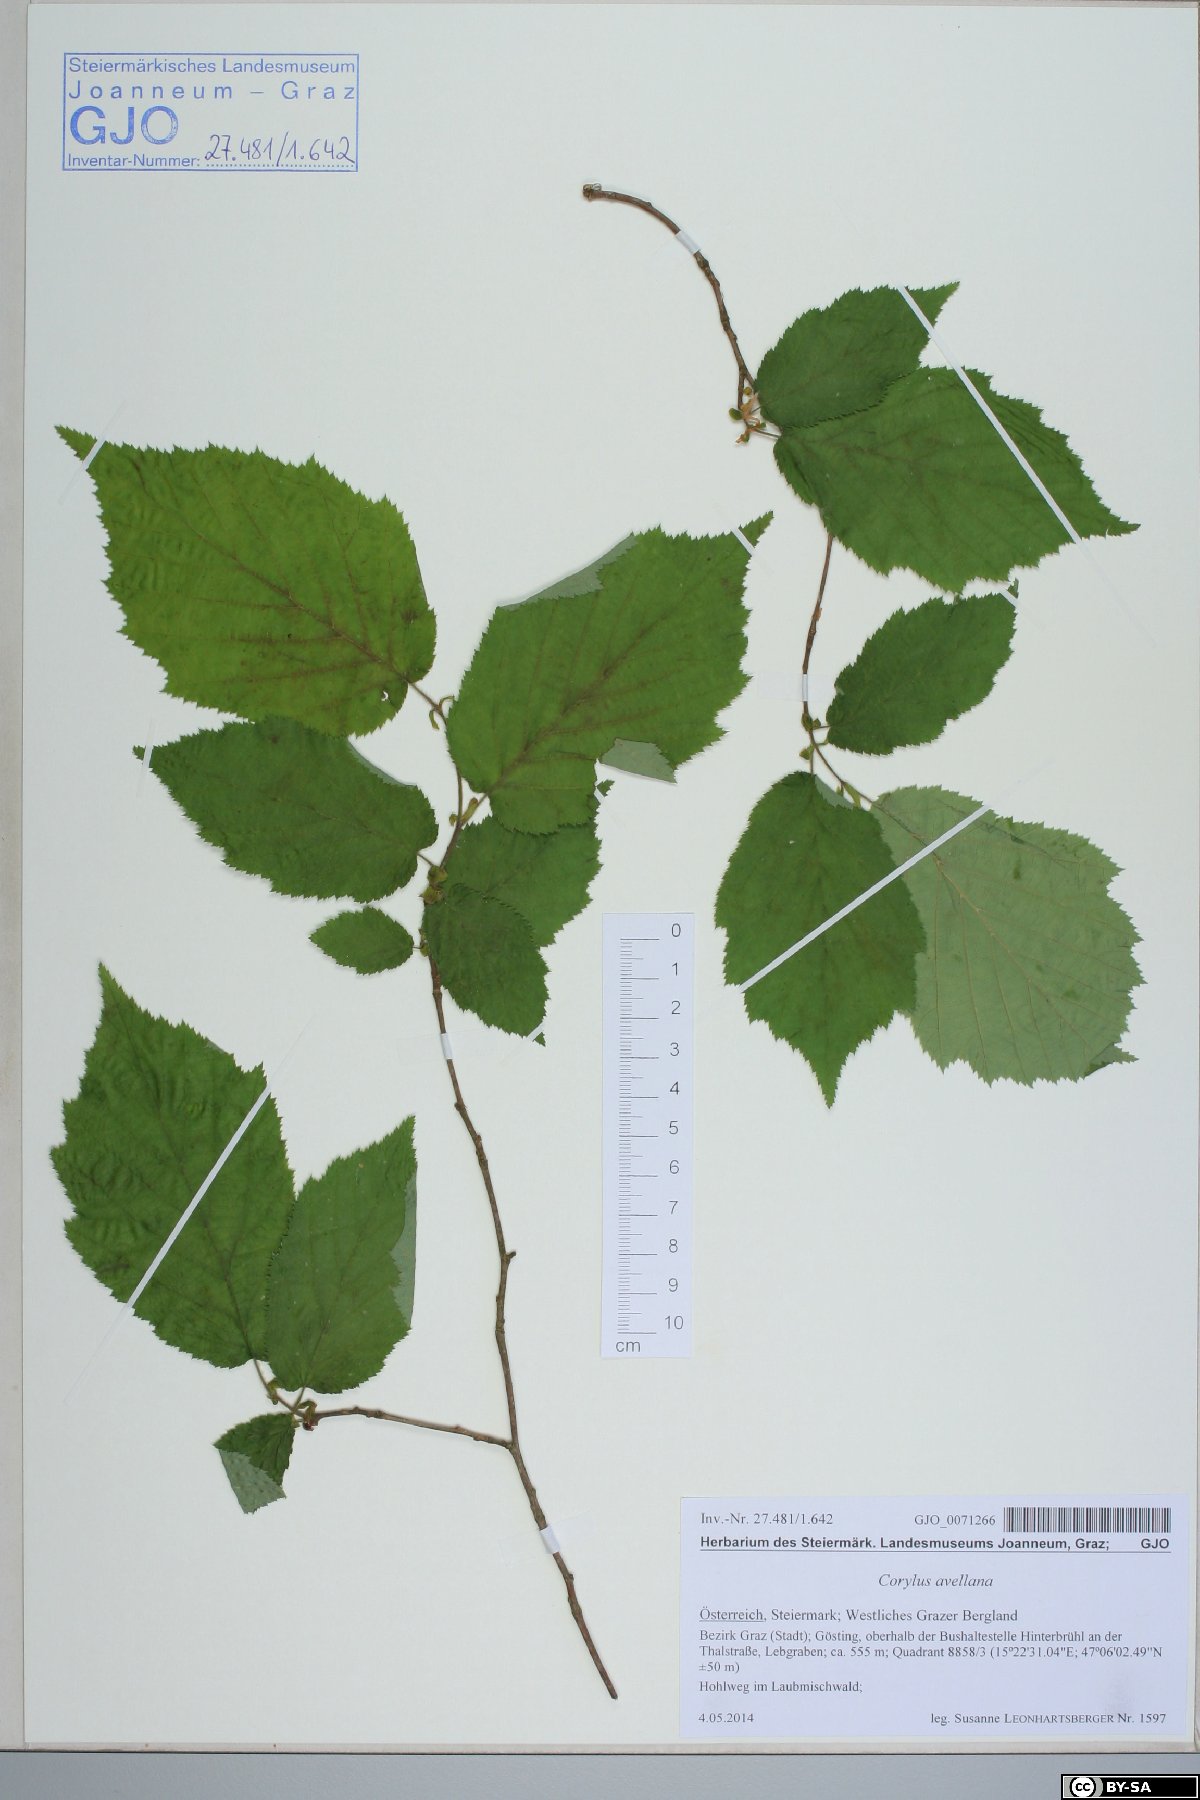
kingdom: Plantae
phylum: Tracheophyta
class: Magnoliopsida
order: Fagales
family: Betulaceae
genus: Corylus
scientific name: Corylus avellana
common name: European hazel
